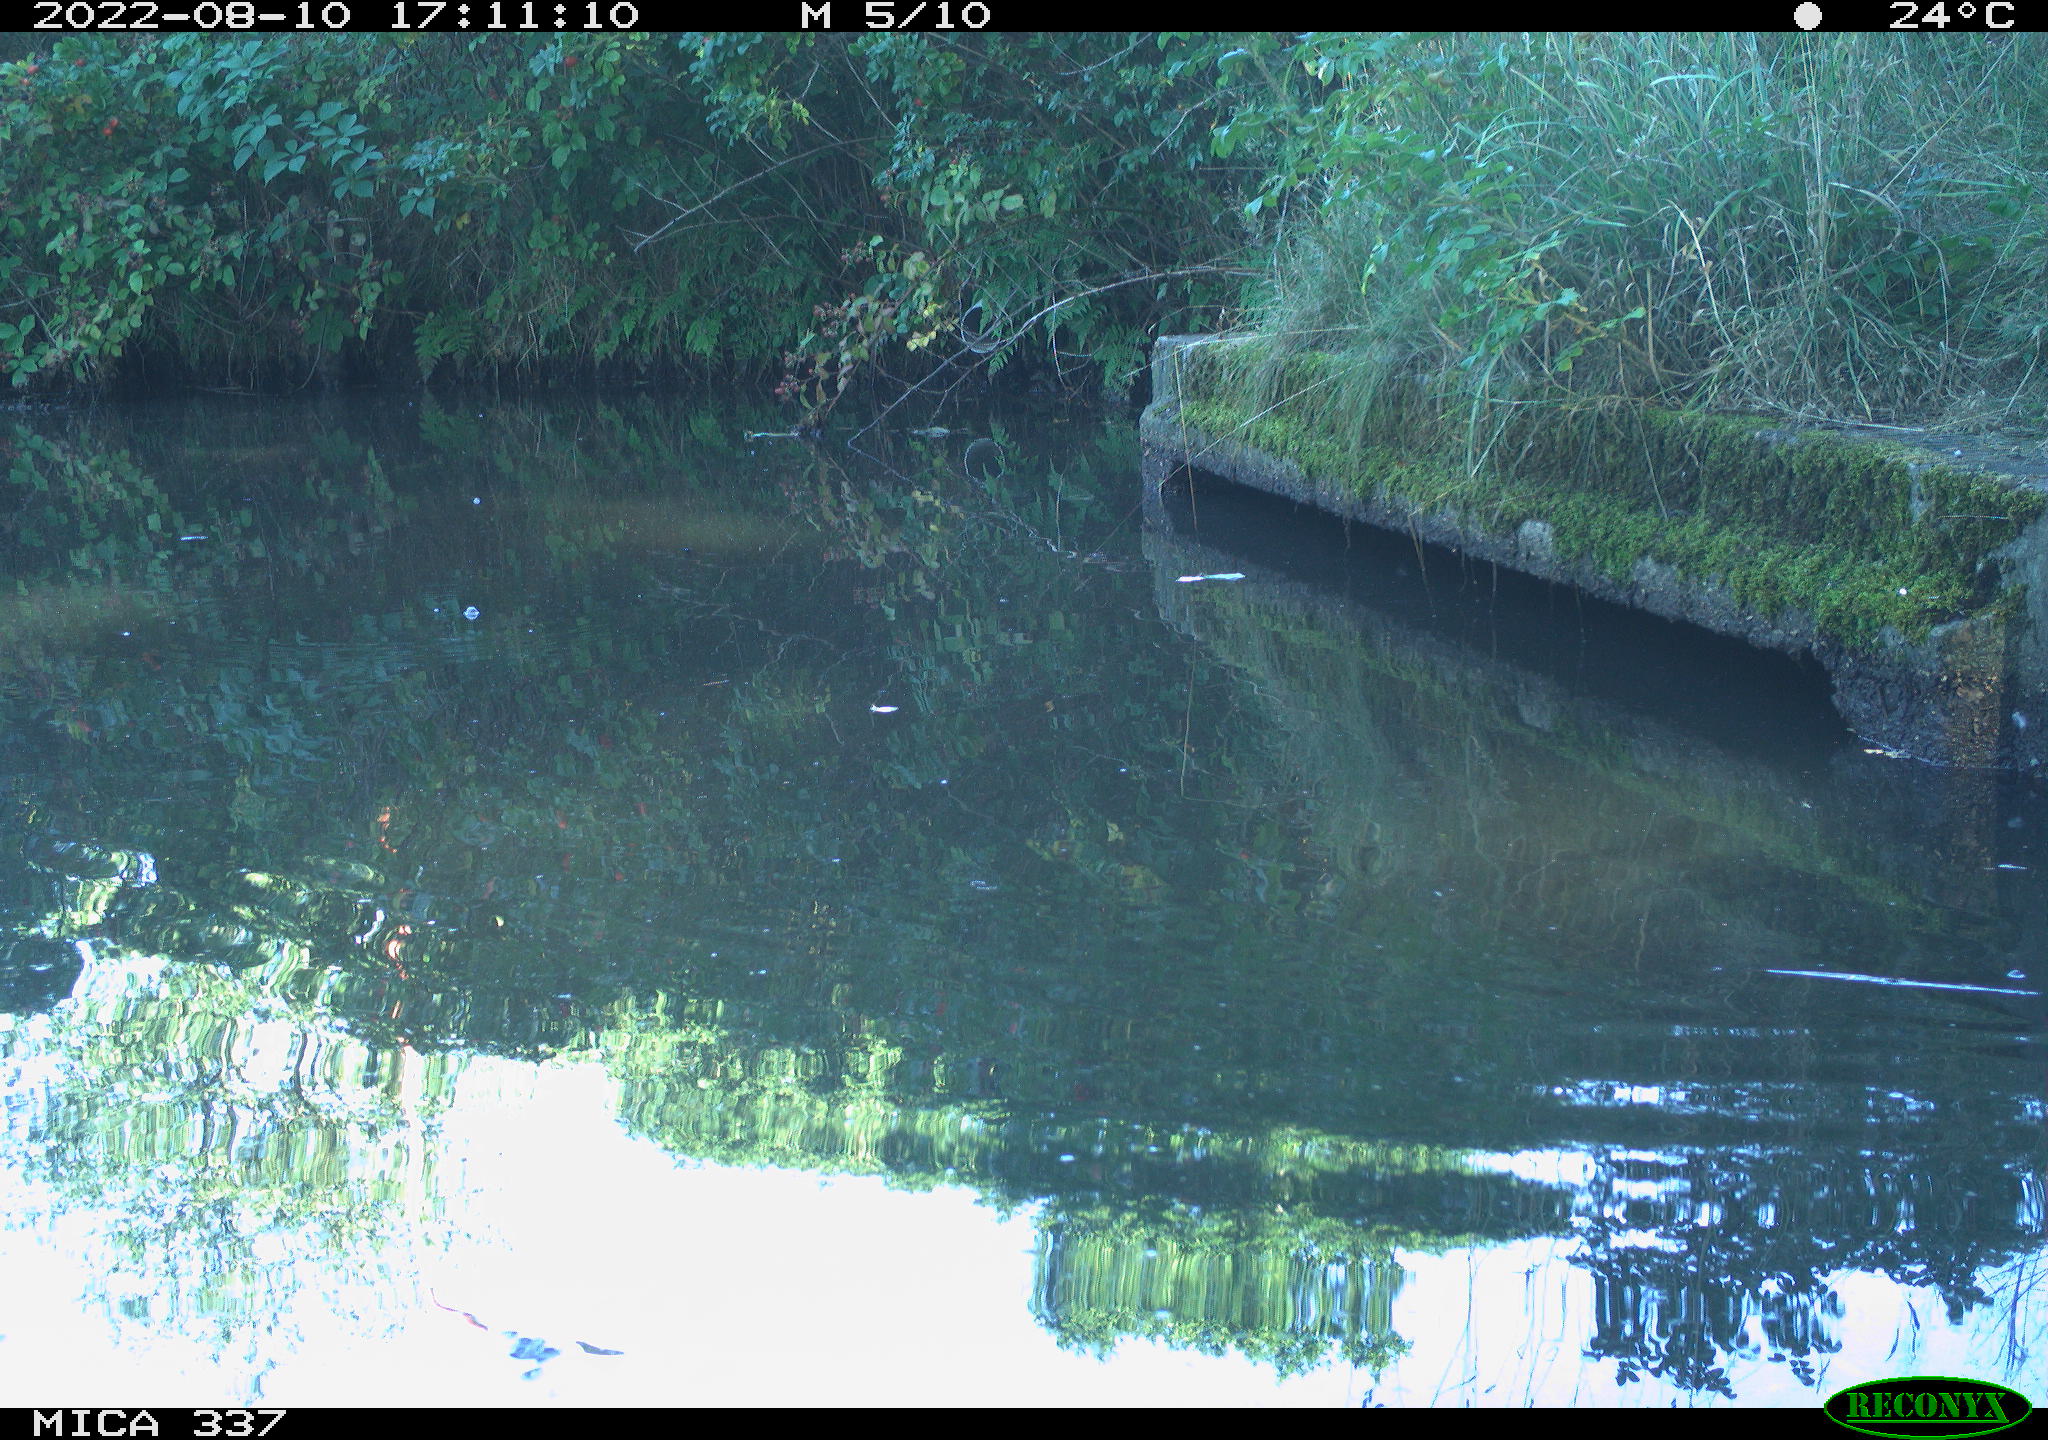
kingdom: Animalia
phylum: Chordata
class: Aves
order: Gruiformes
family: Rallidae
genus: Gallinula
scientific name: Gallinula chloropus
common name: Common moorhen
